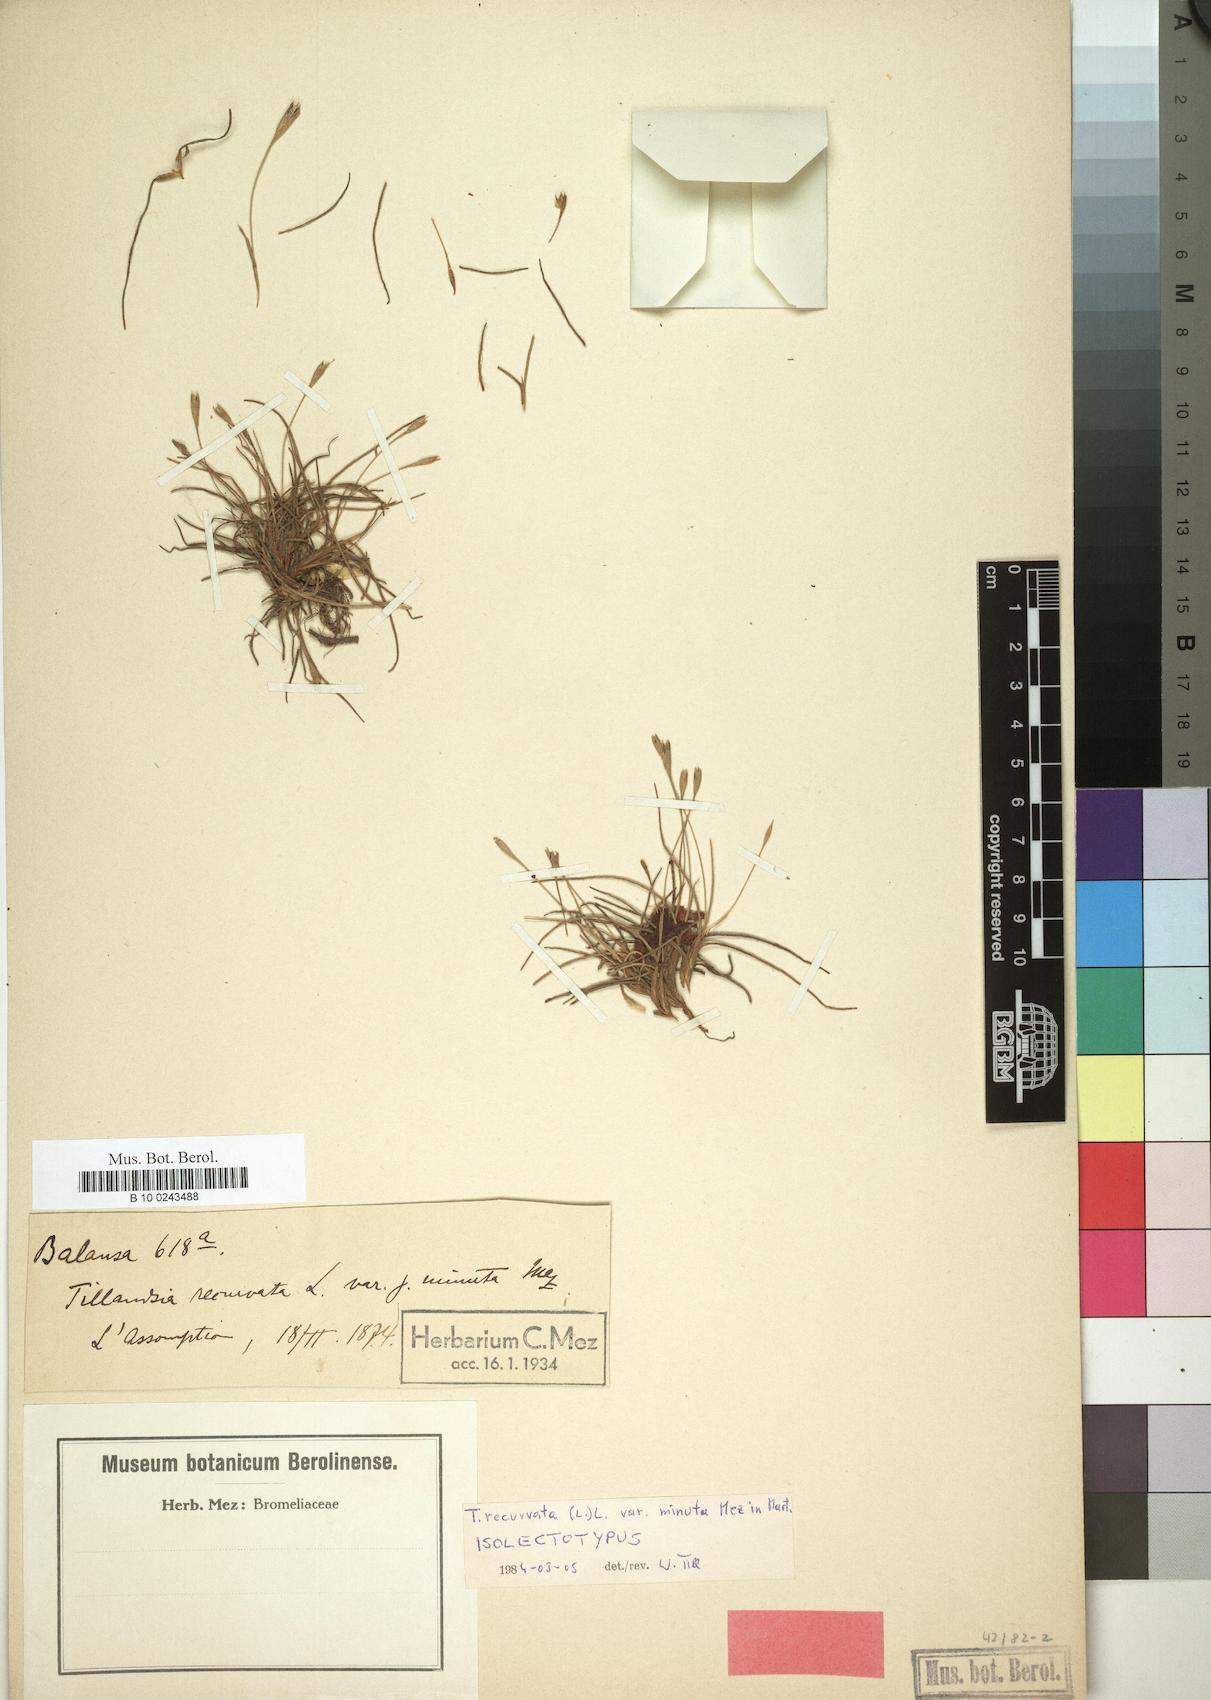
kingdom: Plantae
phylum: Tracheophyta
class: Liliopsida
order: Poales
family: Bromeliaceae
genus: Tillandsia
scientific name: Tillandsia recurvata
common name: Small ballmoss
